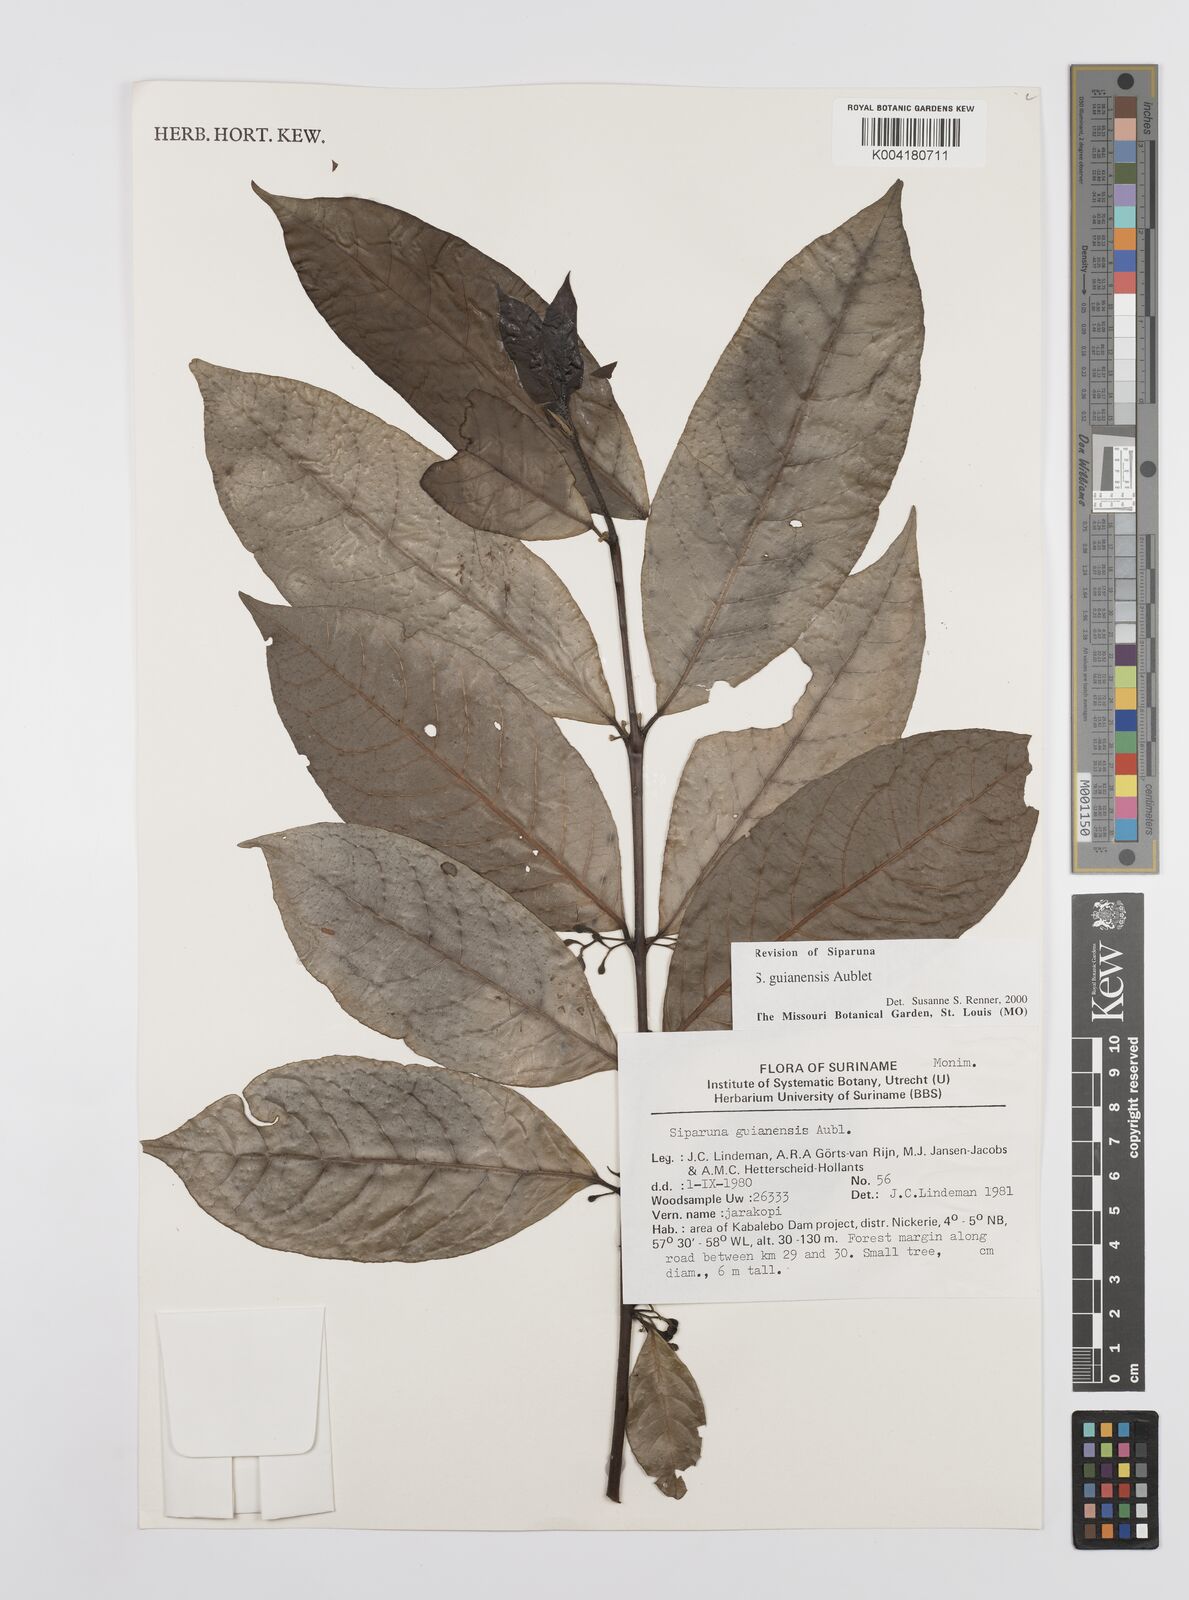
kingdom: Plantae
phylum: Tracheophyta
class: Magnoliopsida
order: Laurales
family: Siparunaceae
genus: Siparuna
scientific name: Siparuna guianensis
